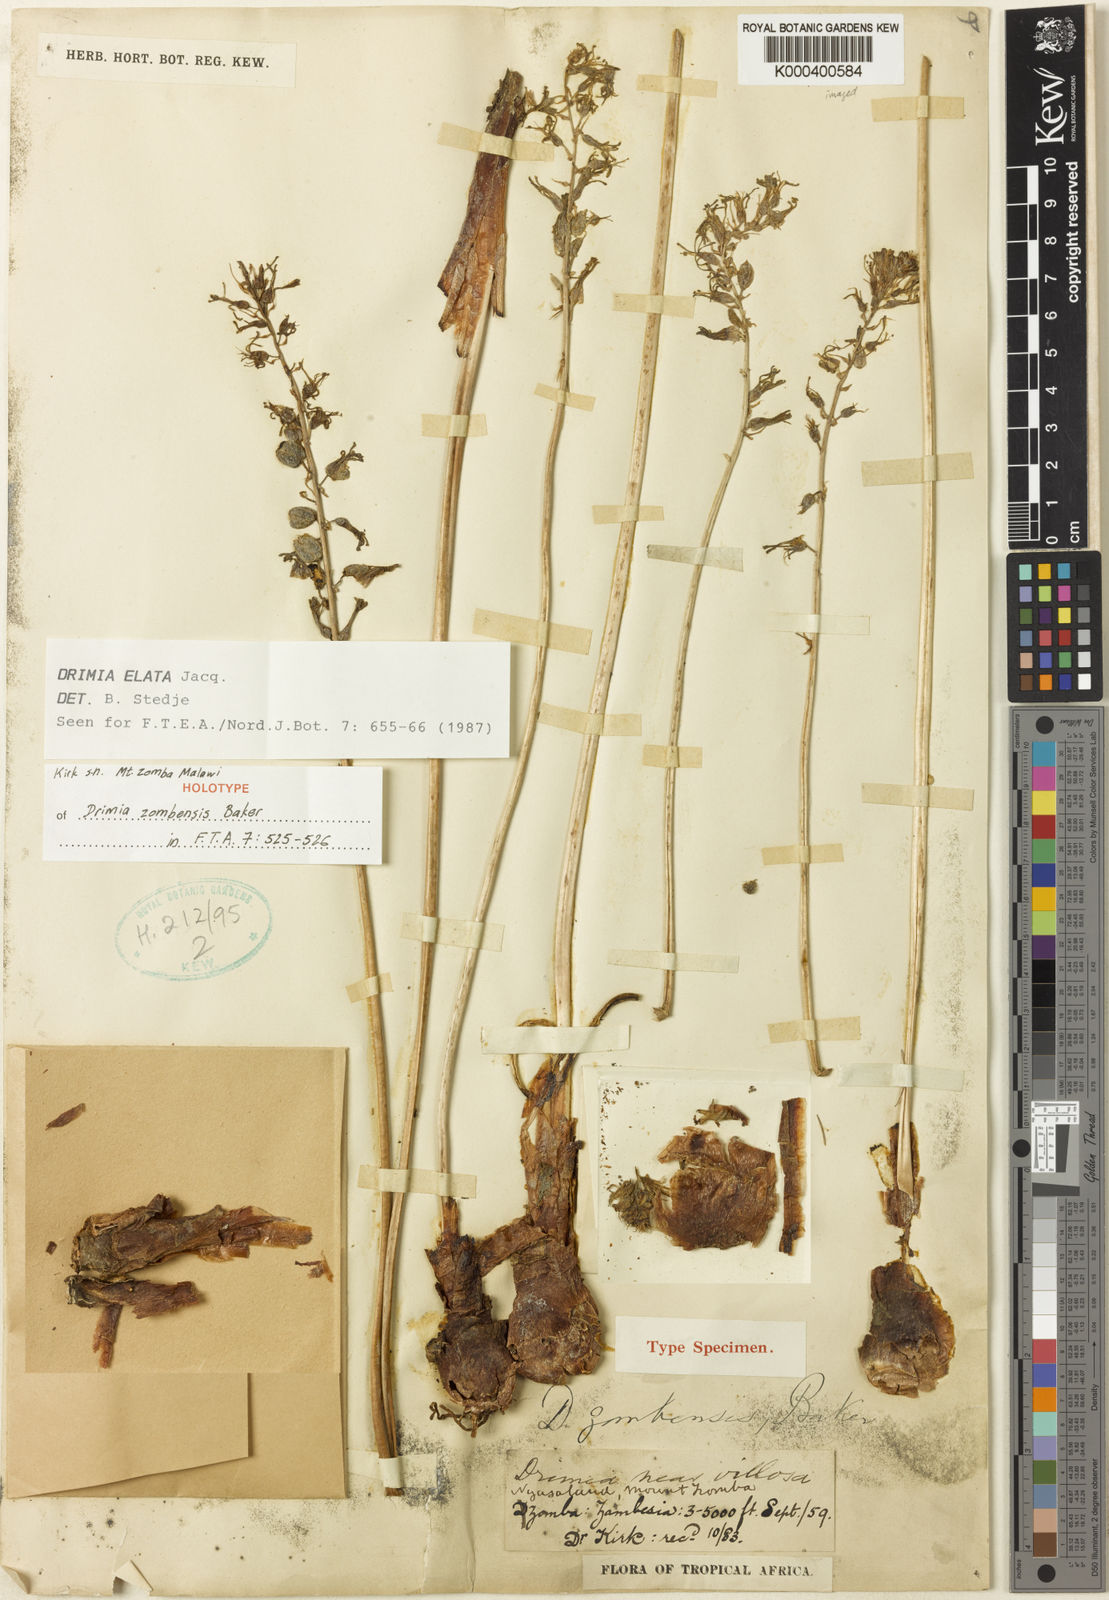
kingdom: Plantae
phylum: Tracheophyta
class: Liliopsida
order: Asparagales
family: Asparagaceae
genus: Drimia
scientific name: Drimia
